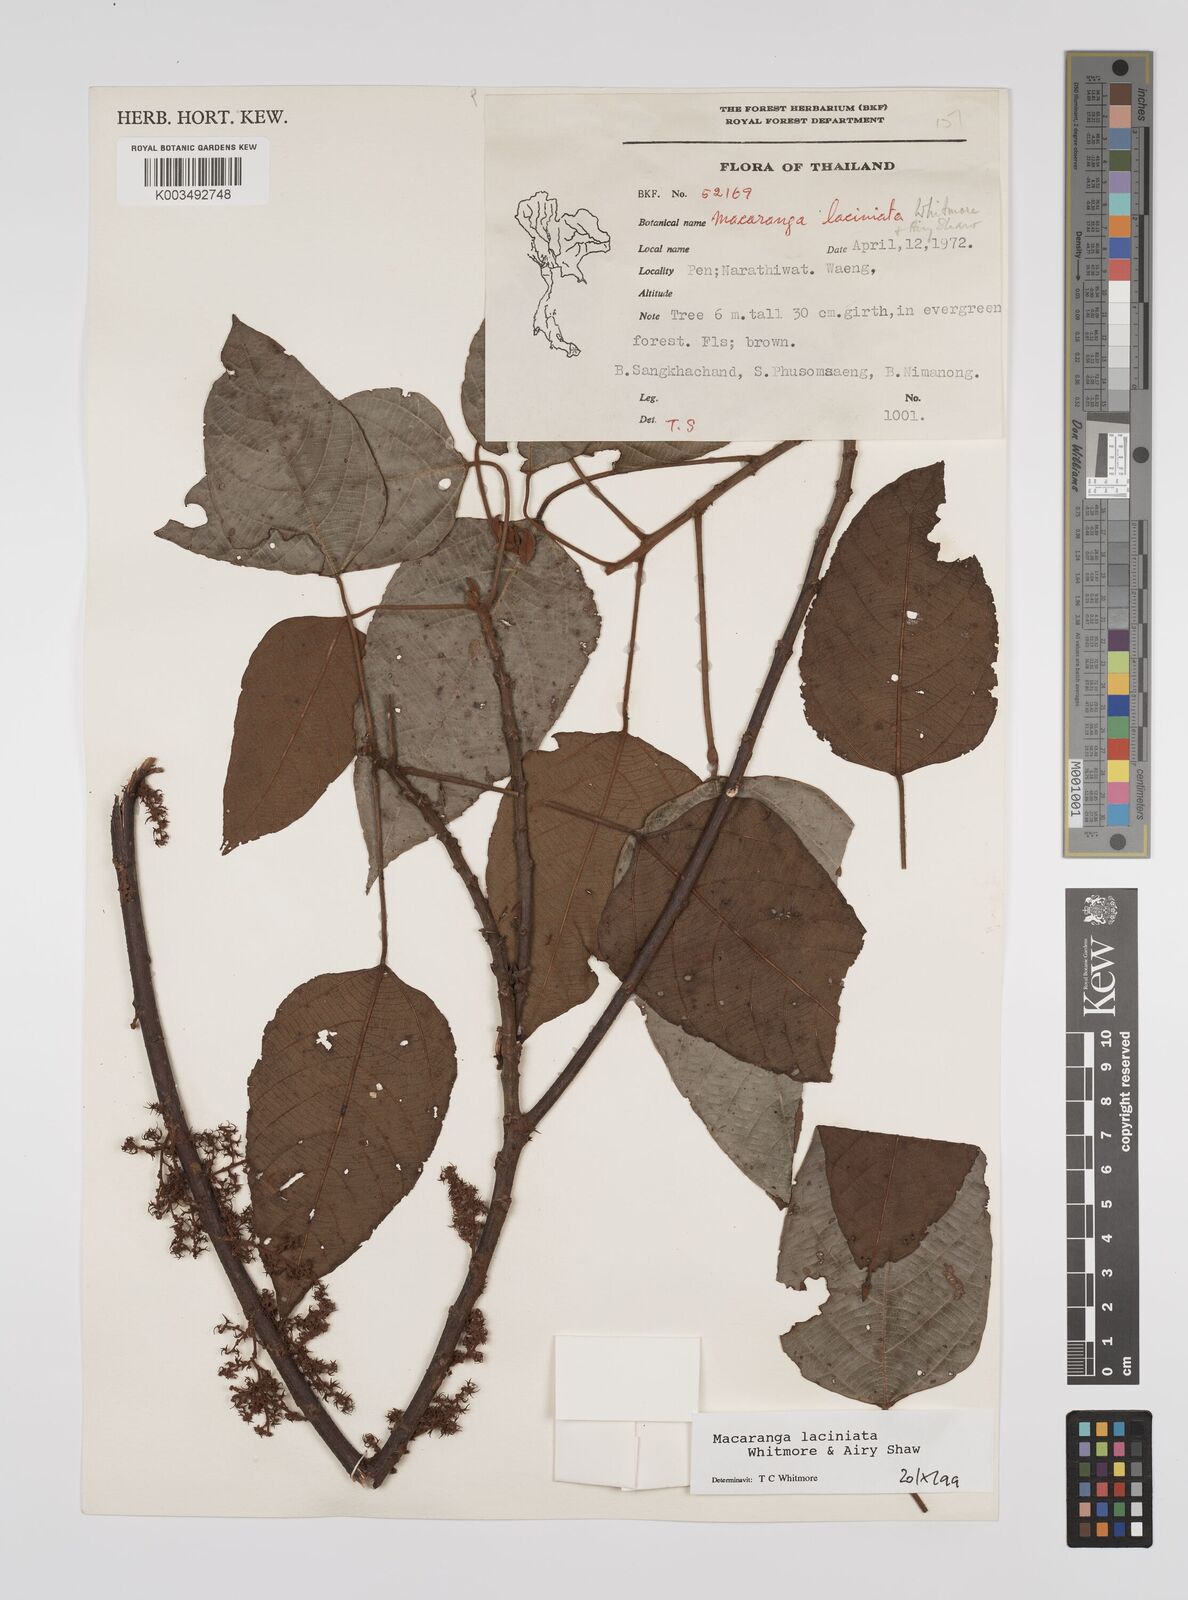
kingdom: Plantae
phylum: Tracheophyta
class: Magnoliopsida
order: Malpighiales
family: Euphorbiaceae
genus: Macaranga
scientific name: Macaranga laciniata
